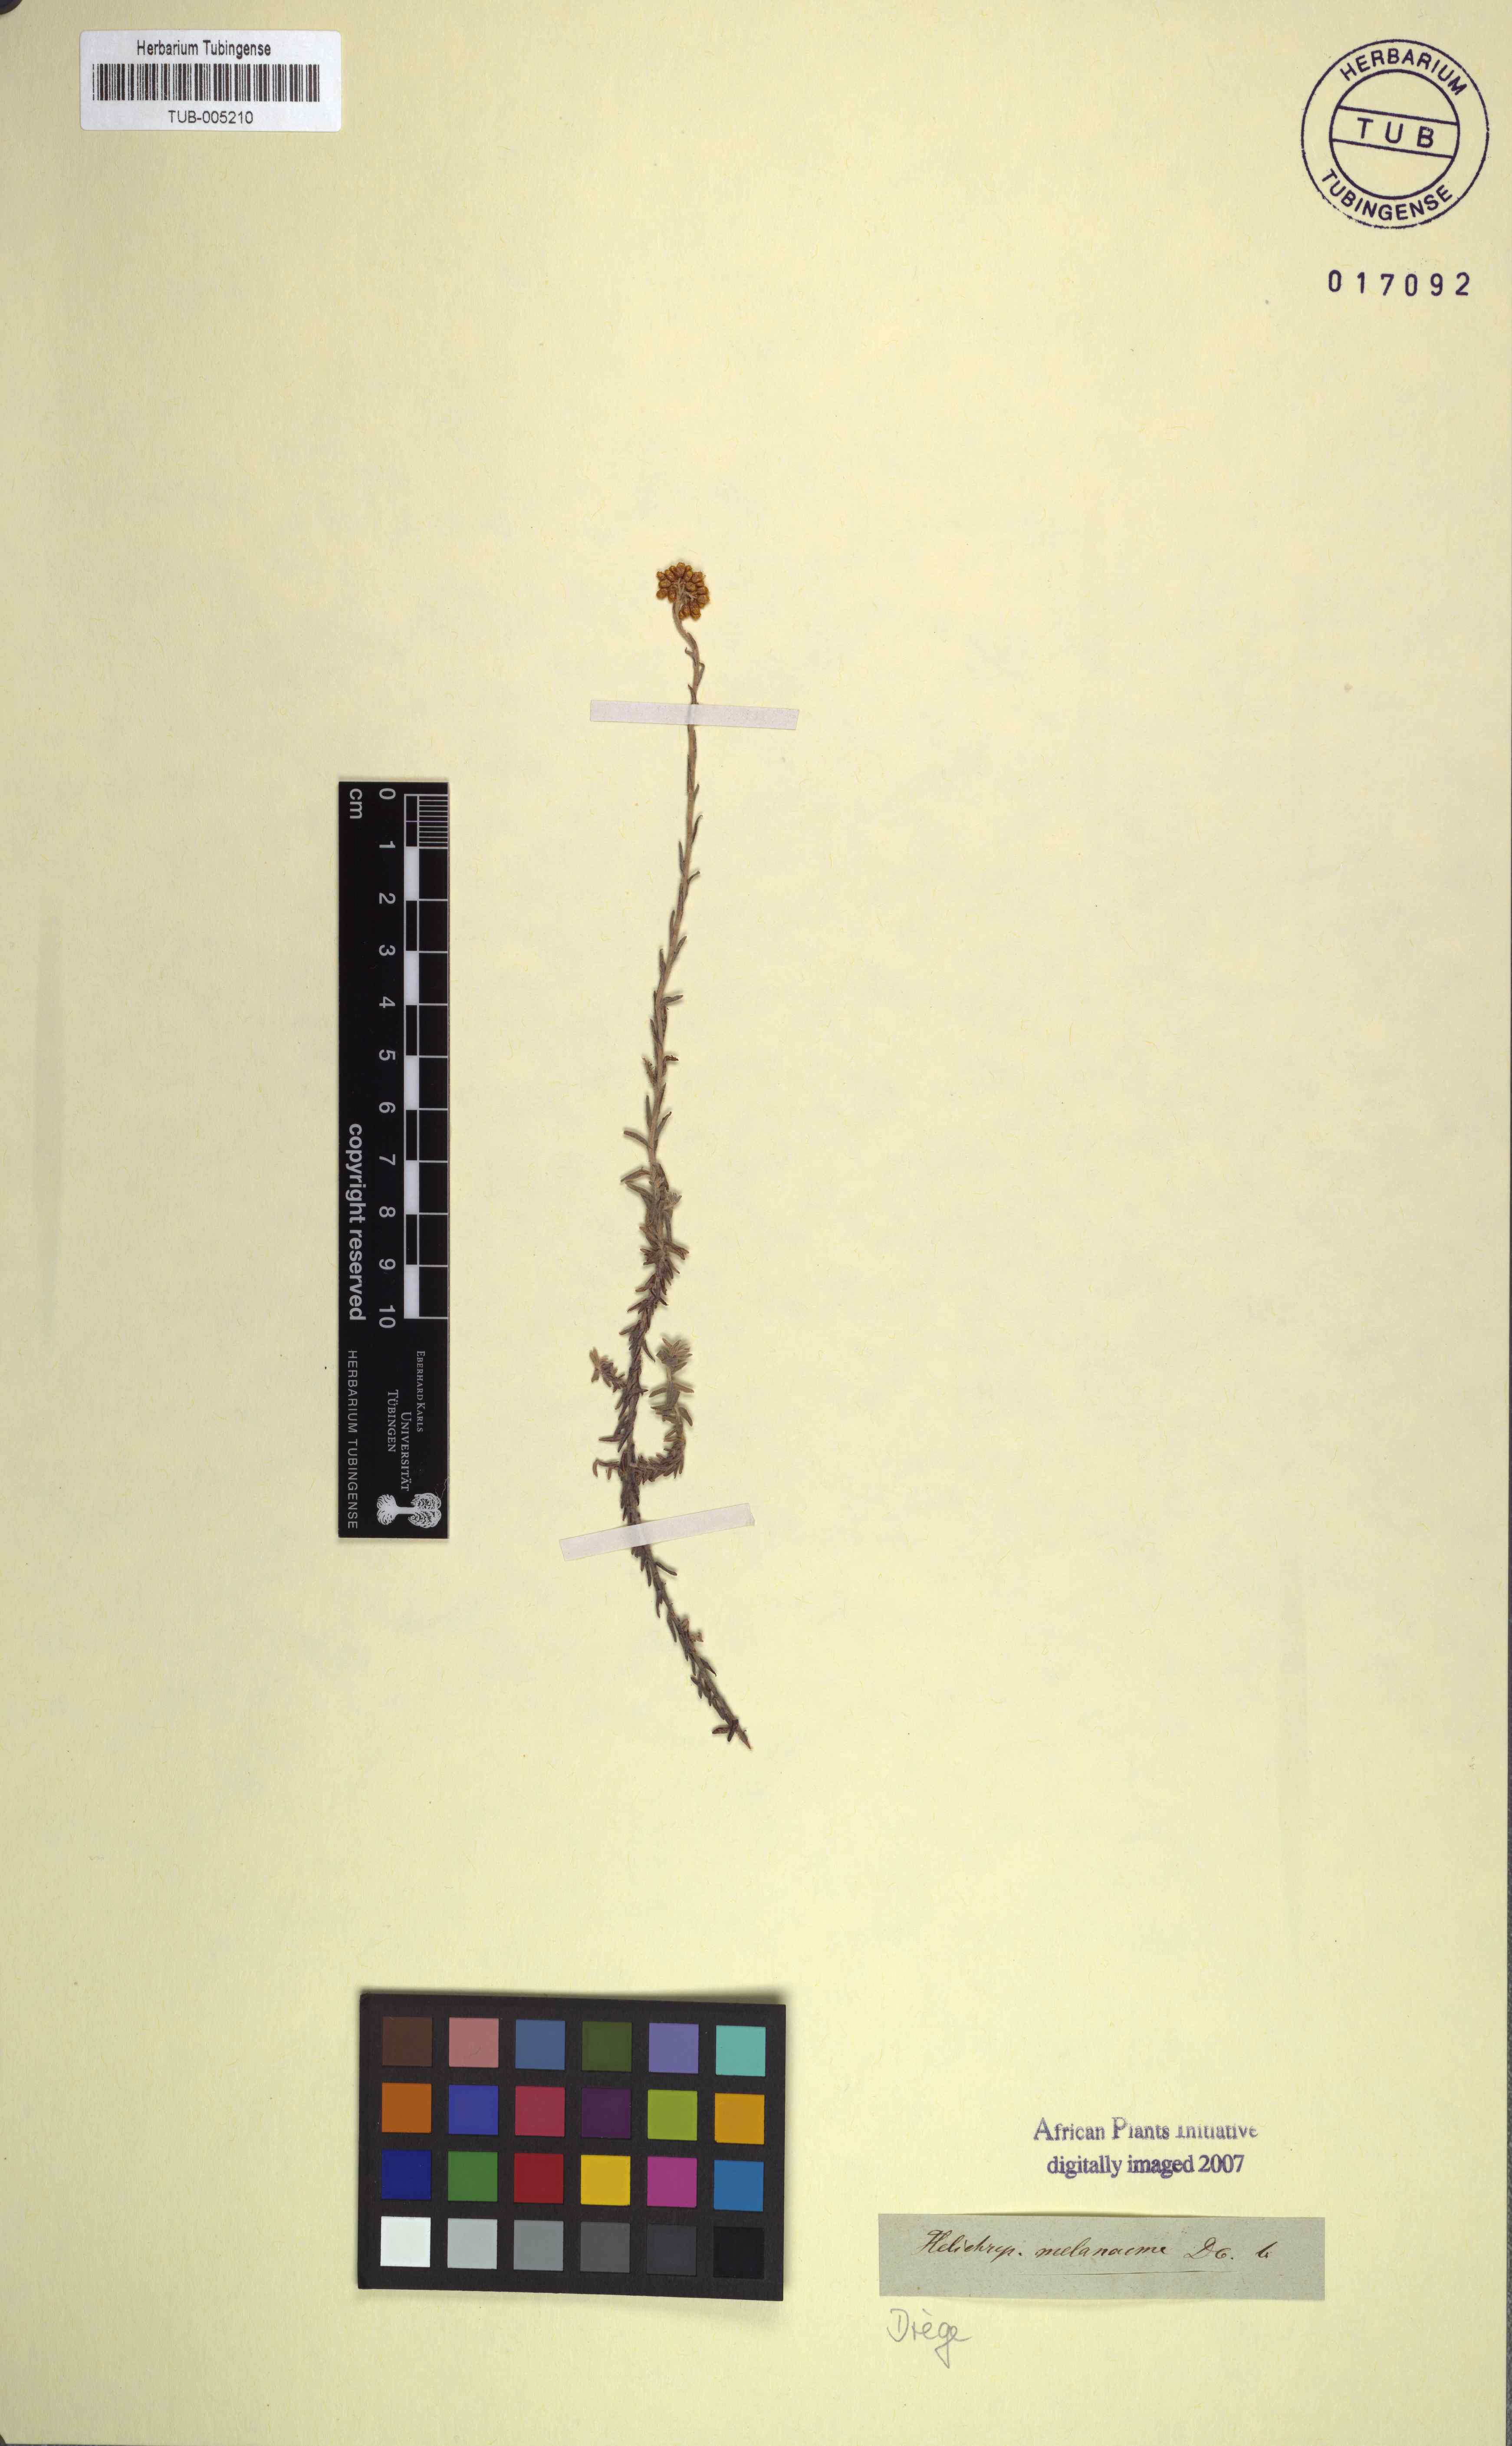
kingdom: Plantae
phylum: Tracheophyta
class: Magnoliopsida
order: Asterales
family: Asteraceae
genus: Helichrysum
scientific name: Helichrysum melanacme
